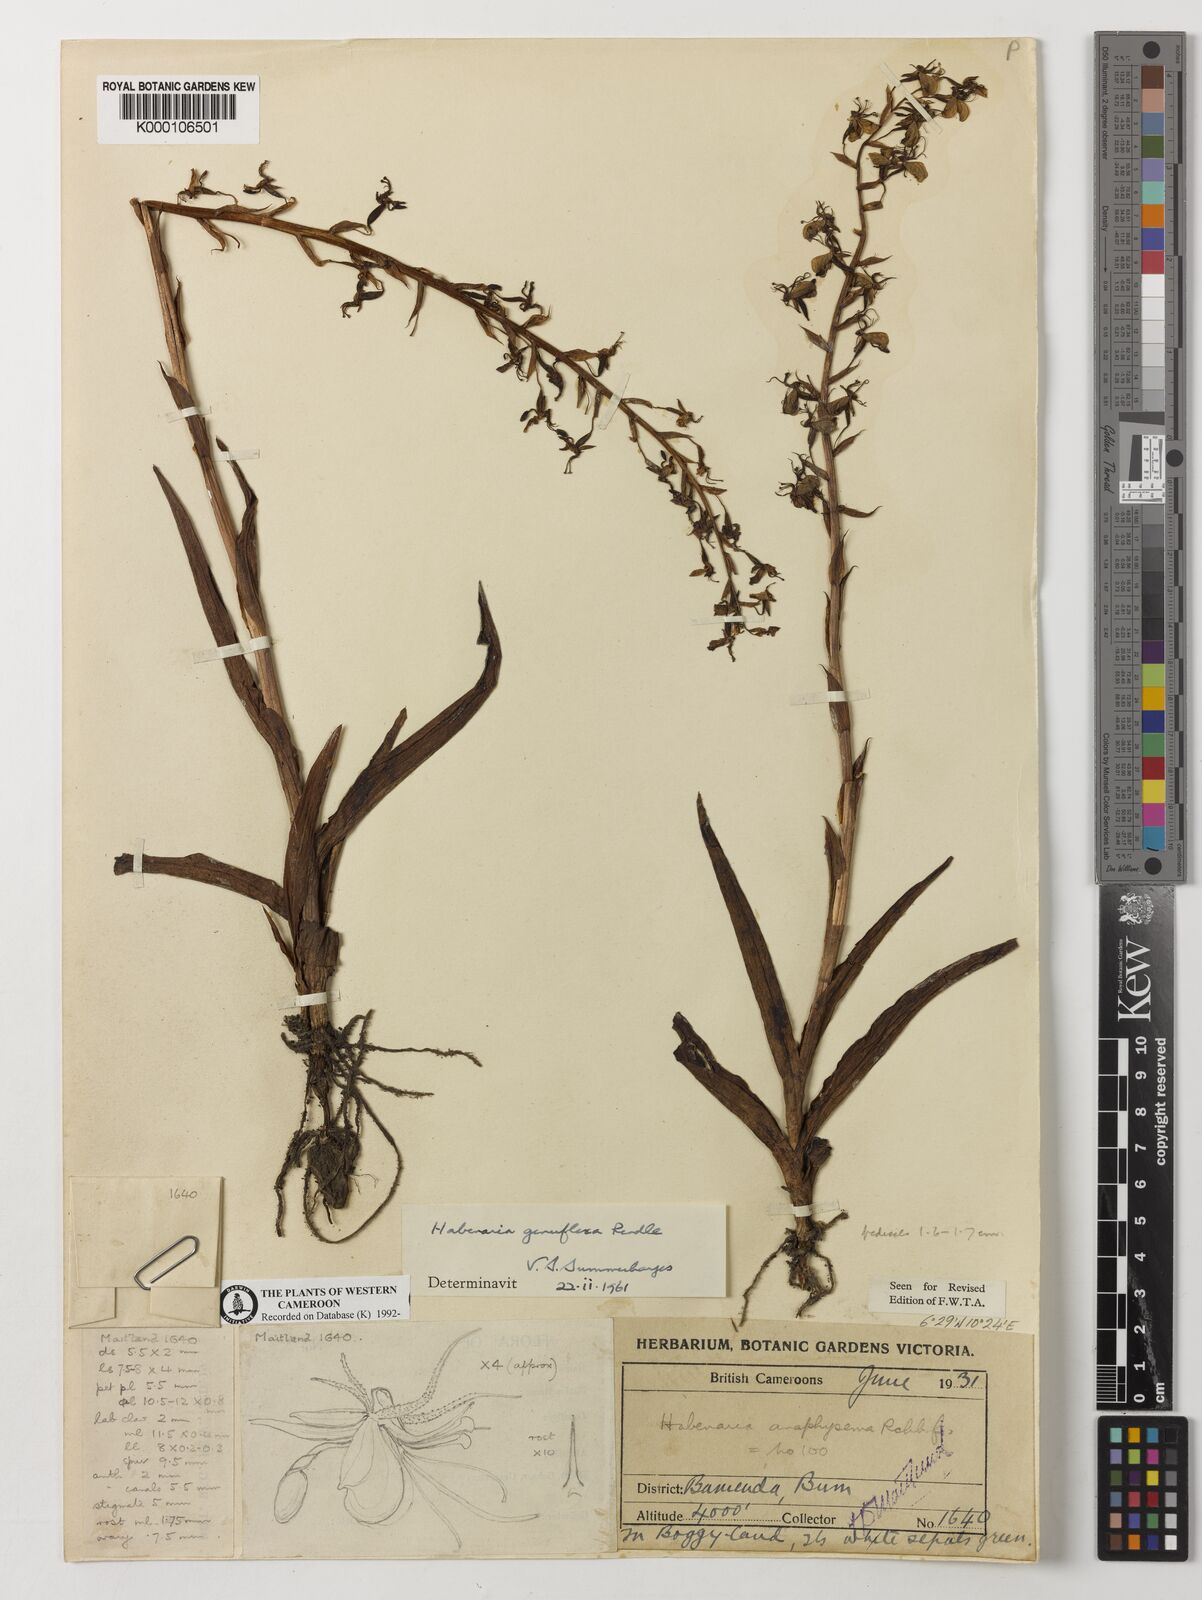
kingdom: Plantae
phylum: Tracheophyta
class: Liliopsida
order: Asparagales
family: Orchidaceae
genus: Habenaria
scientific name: Habenaria genuflexa
